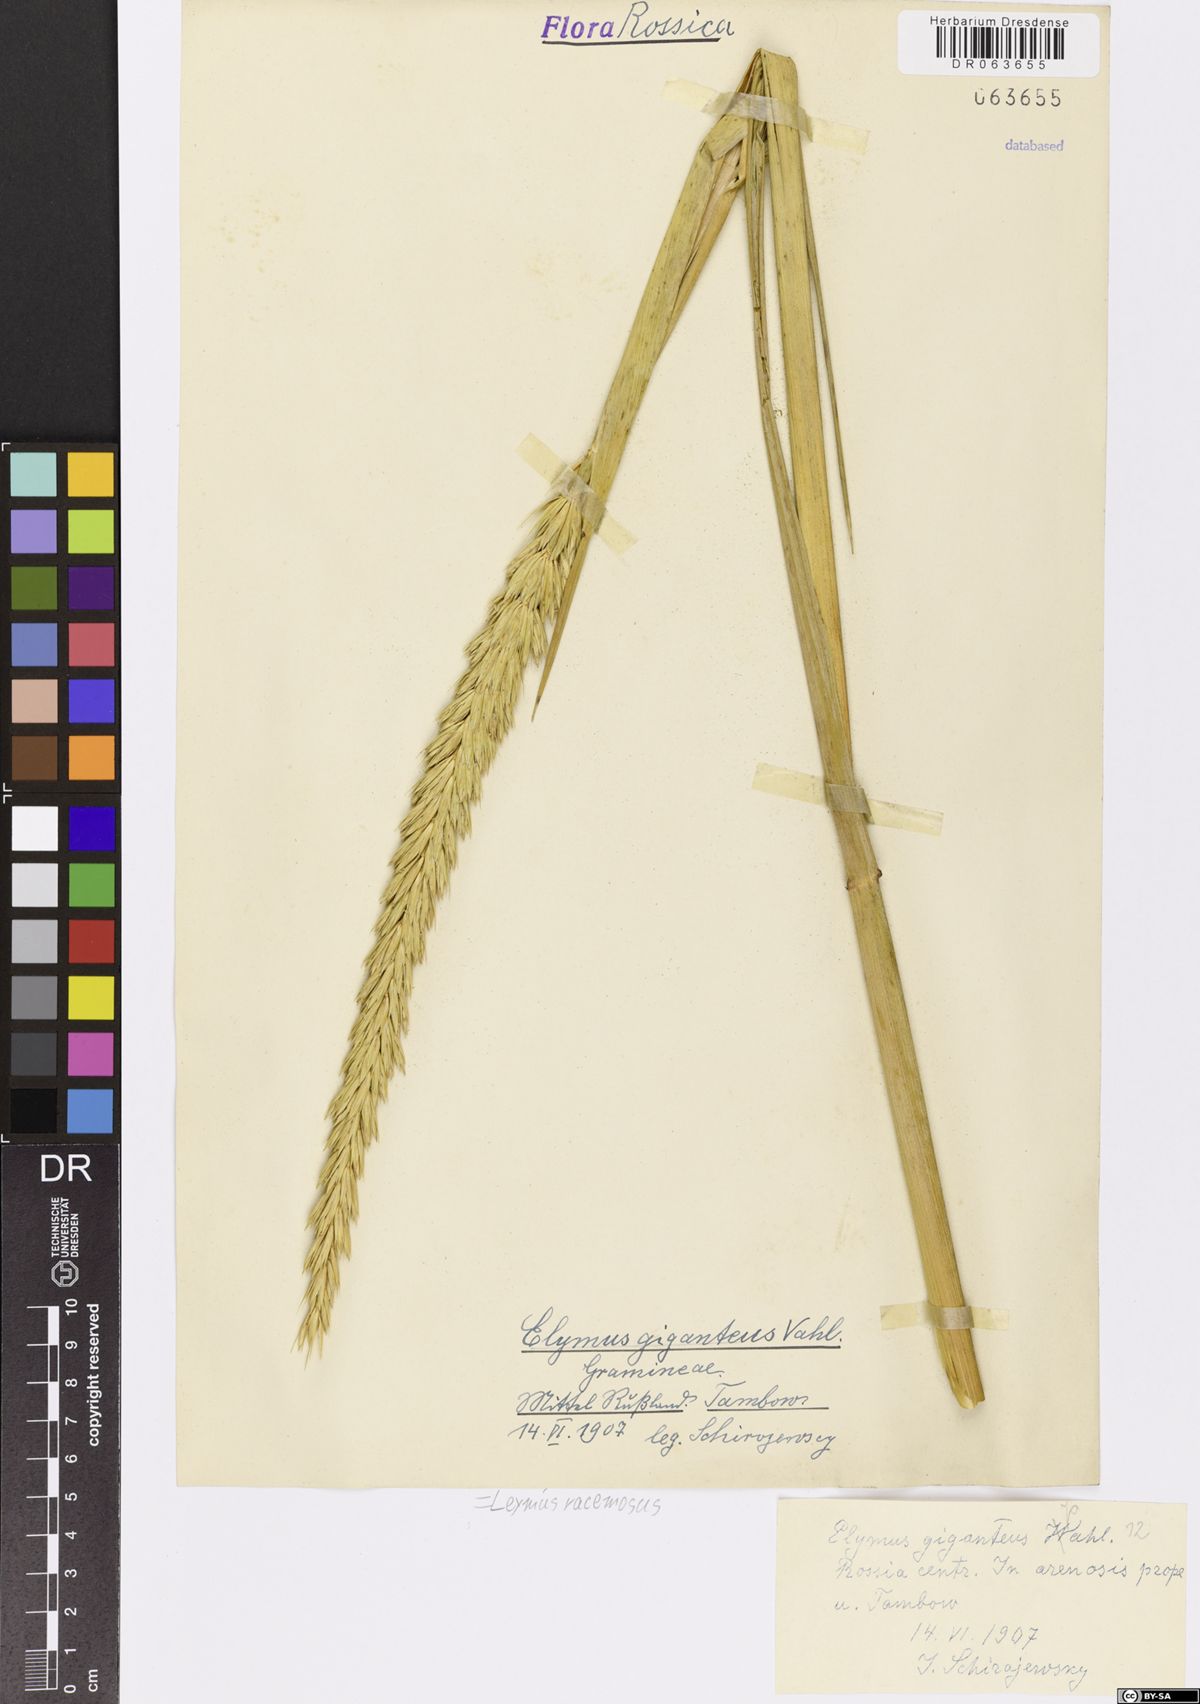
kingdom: Plantae
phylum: Tracheophyta
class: Liliopsida
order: Poales
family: Poaceae
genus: Leymus
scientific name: Leymus racemosus
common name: Mammoth wildrye
